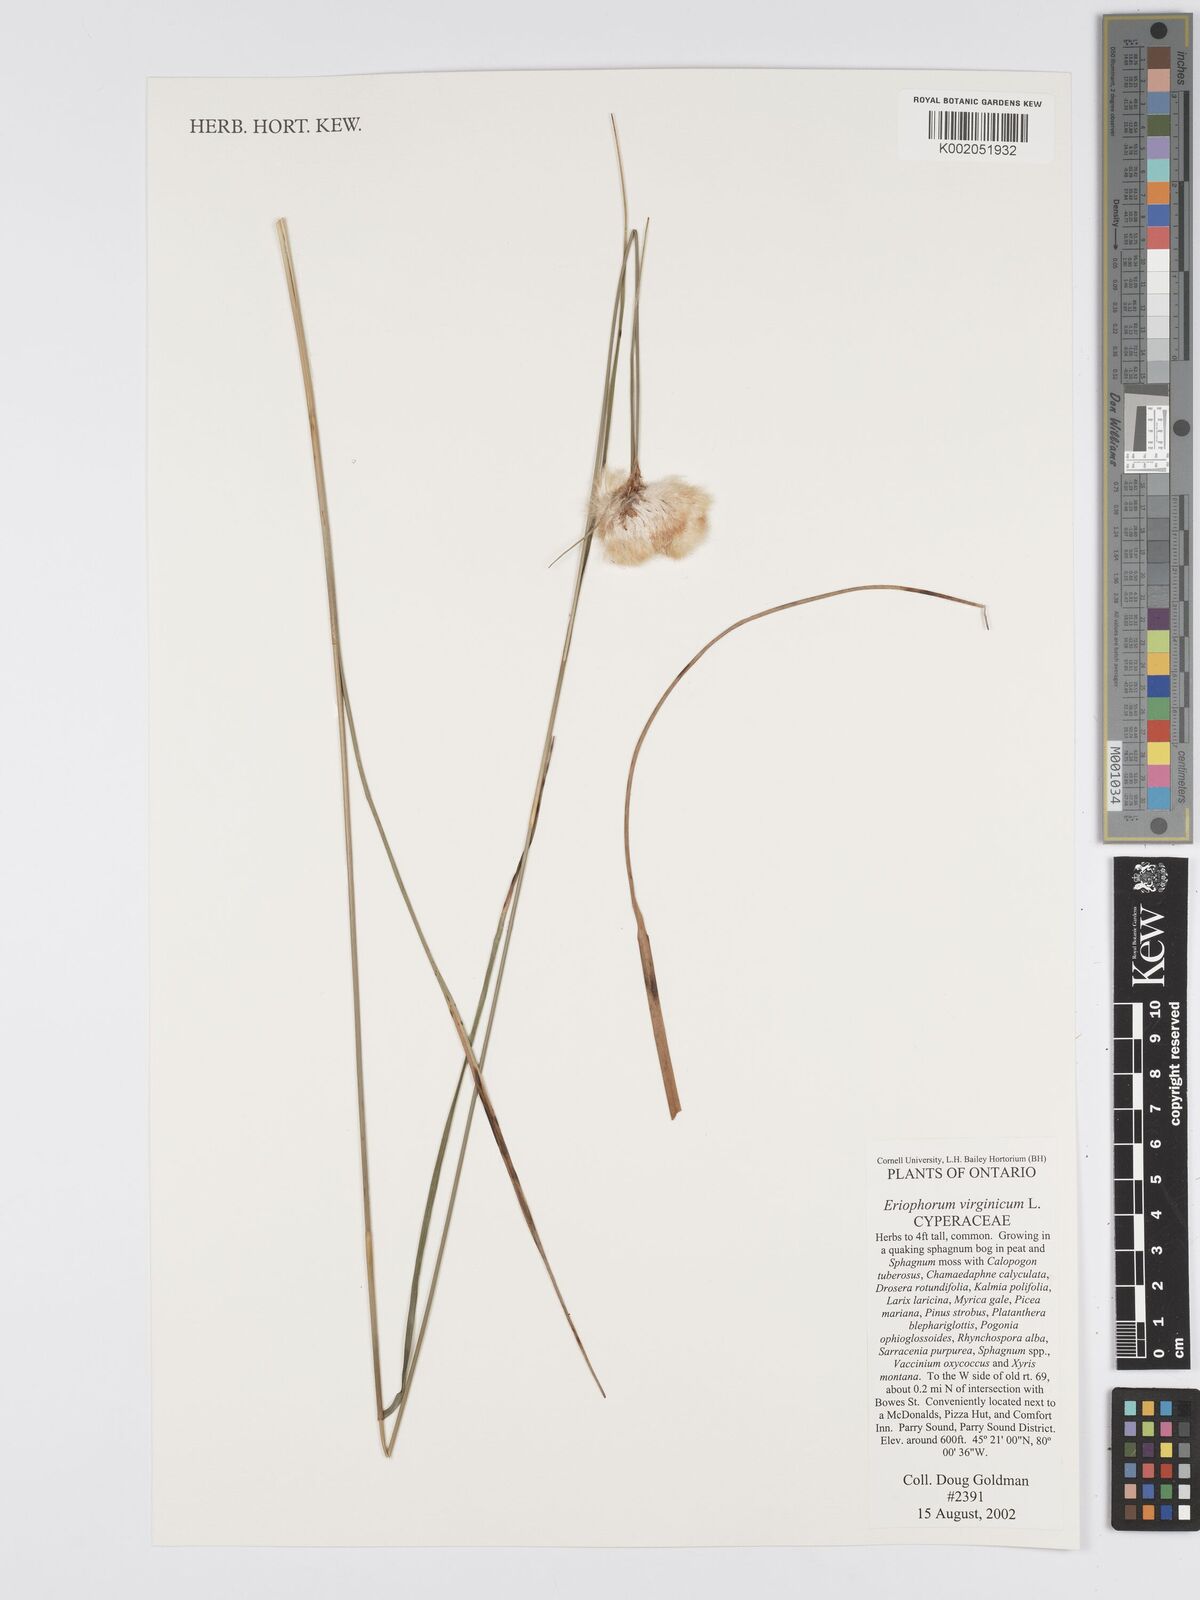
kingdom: Plantae
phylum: Tracheophyta
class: Liliopsida
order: Poales
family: Cyperaceae
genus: Eriophorum
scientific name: Eriophorum virginicum
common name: Tawny cottongrass
